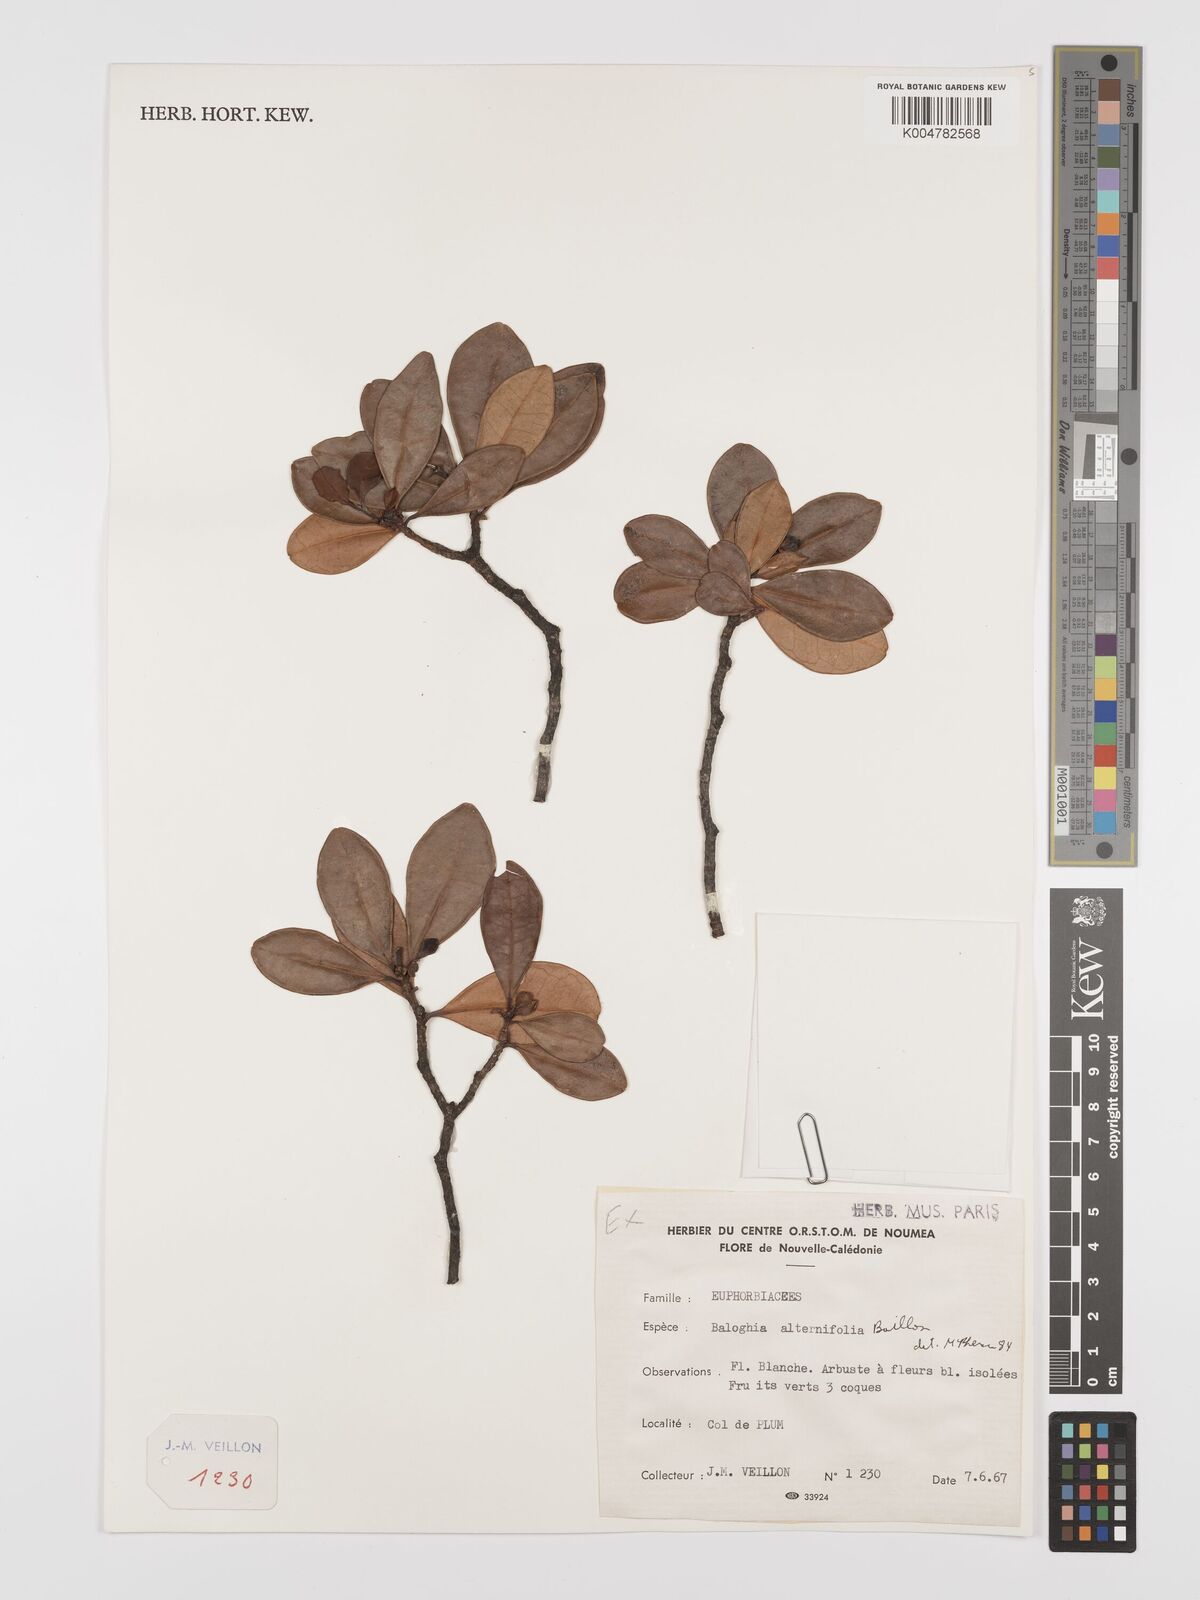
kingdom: Plantae
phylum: Tracheophyta
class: Magnoliopsida
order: Malpighiales
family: Euphorbiaceae
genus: Baloghia
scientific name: Baloghia alternifolia
